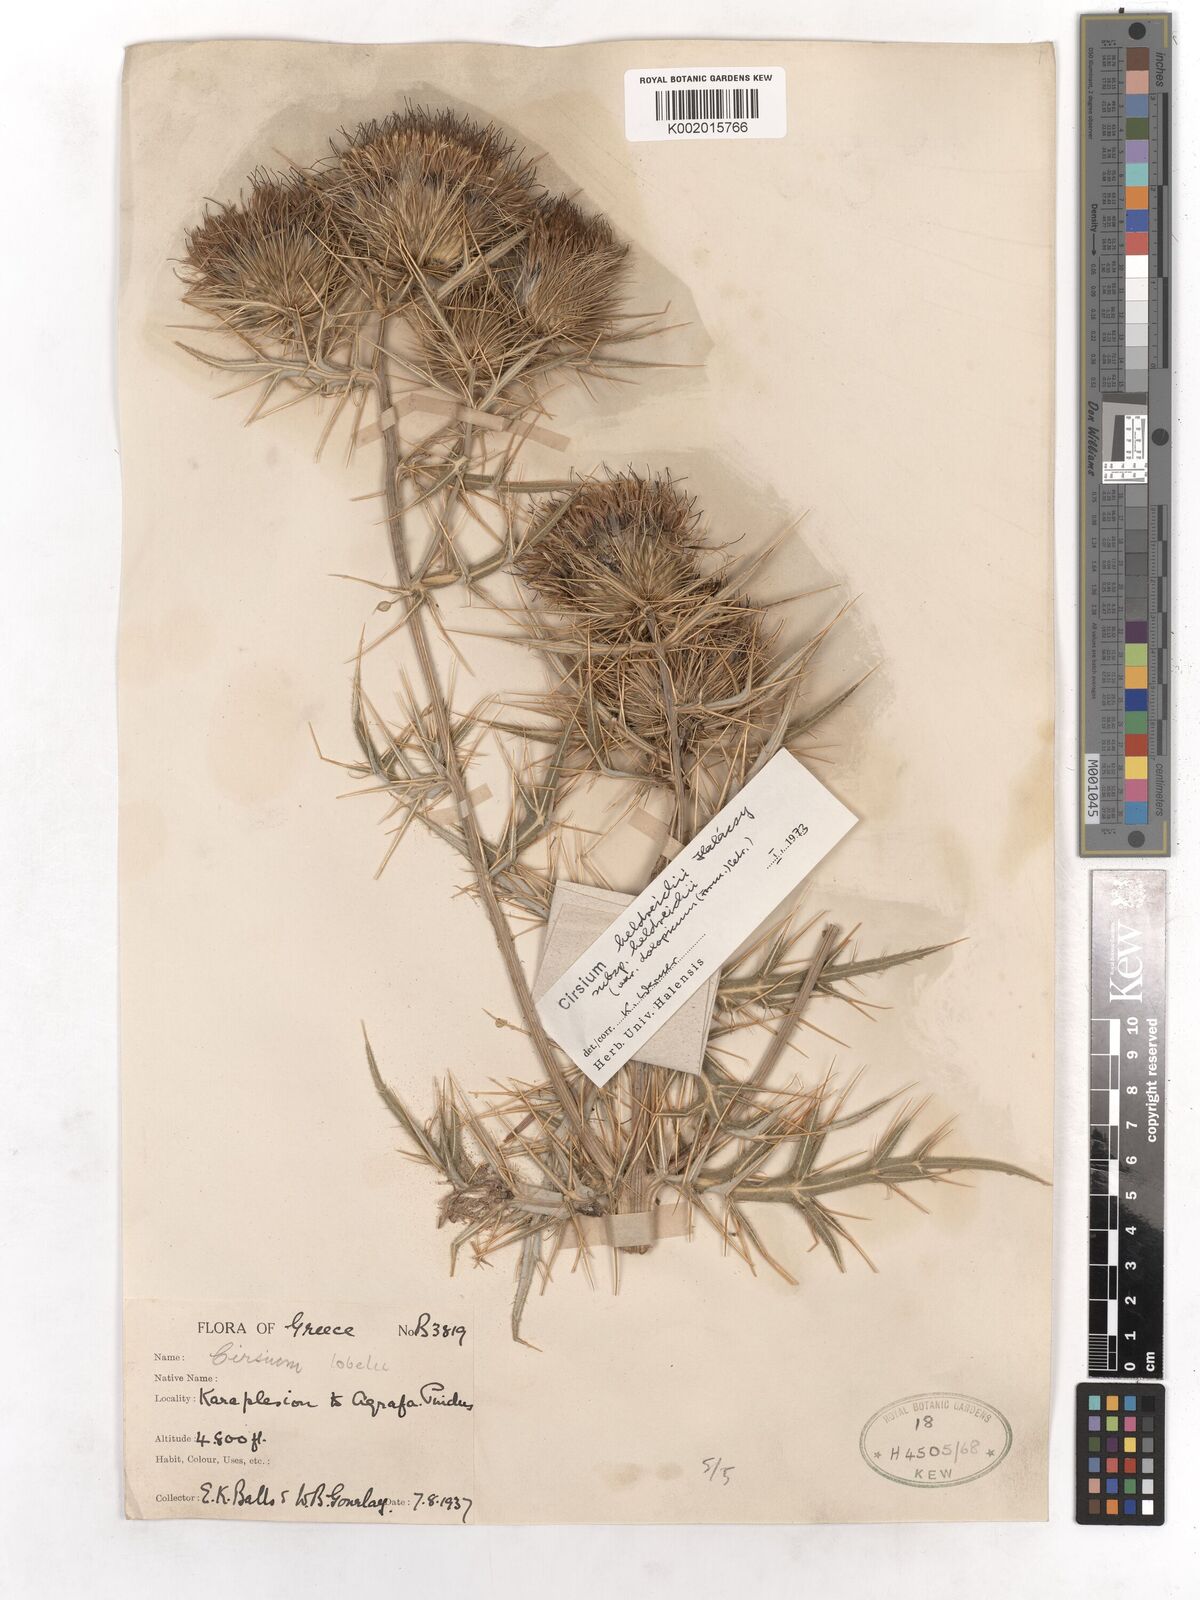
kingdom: Plantae
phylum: Tracheophyta
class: Magnoliopsida
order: Asterales
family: Asteraceae
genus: Cirsium
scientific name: Cirsium filipendulum
